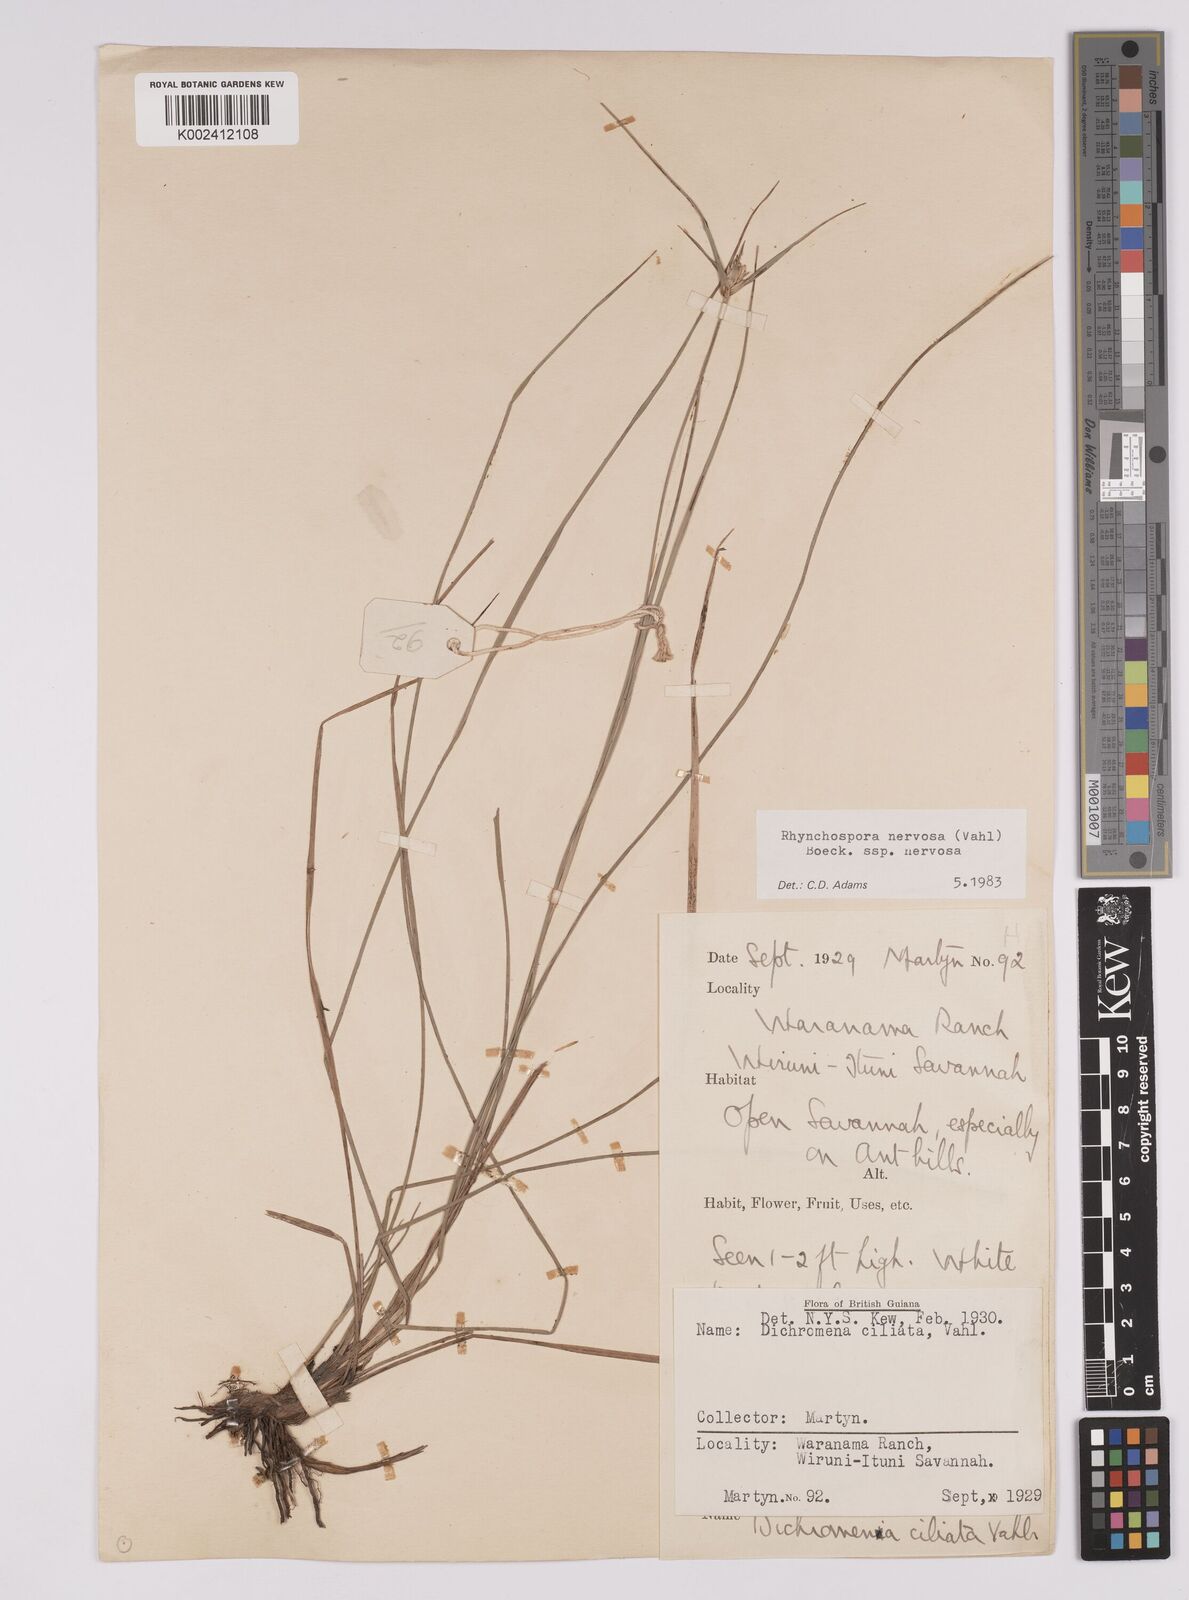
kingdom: Plantae
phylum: Tracheophyta
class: Liliopsida
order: Poales
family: Cyperaceae
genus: Rhynchospora
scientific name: Rhynchospora nervosa
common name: Star sedge
